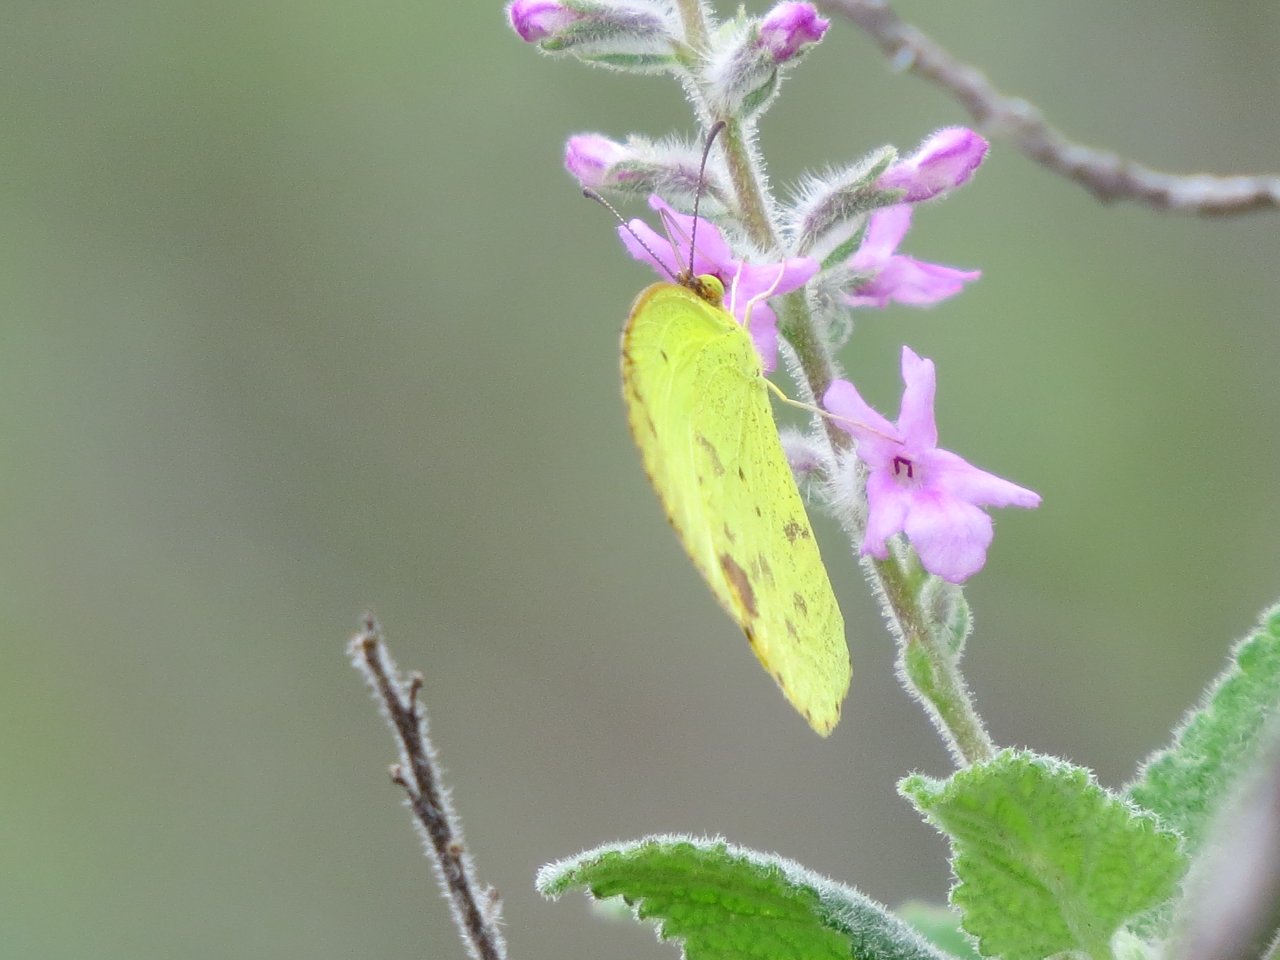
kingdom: Animalia
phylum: Arthropoda
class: Insecta
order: Lepidoptera
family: Pieridae
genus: Pyrisitia
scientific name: Pyrisitia lisa
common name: Little Yellow
